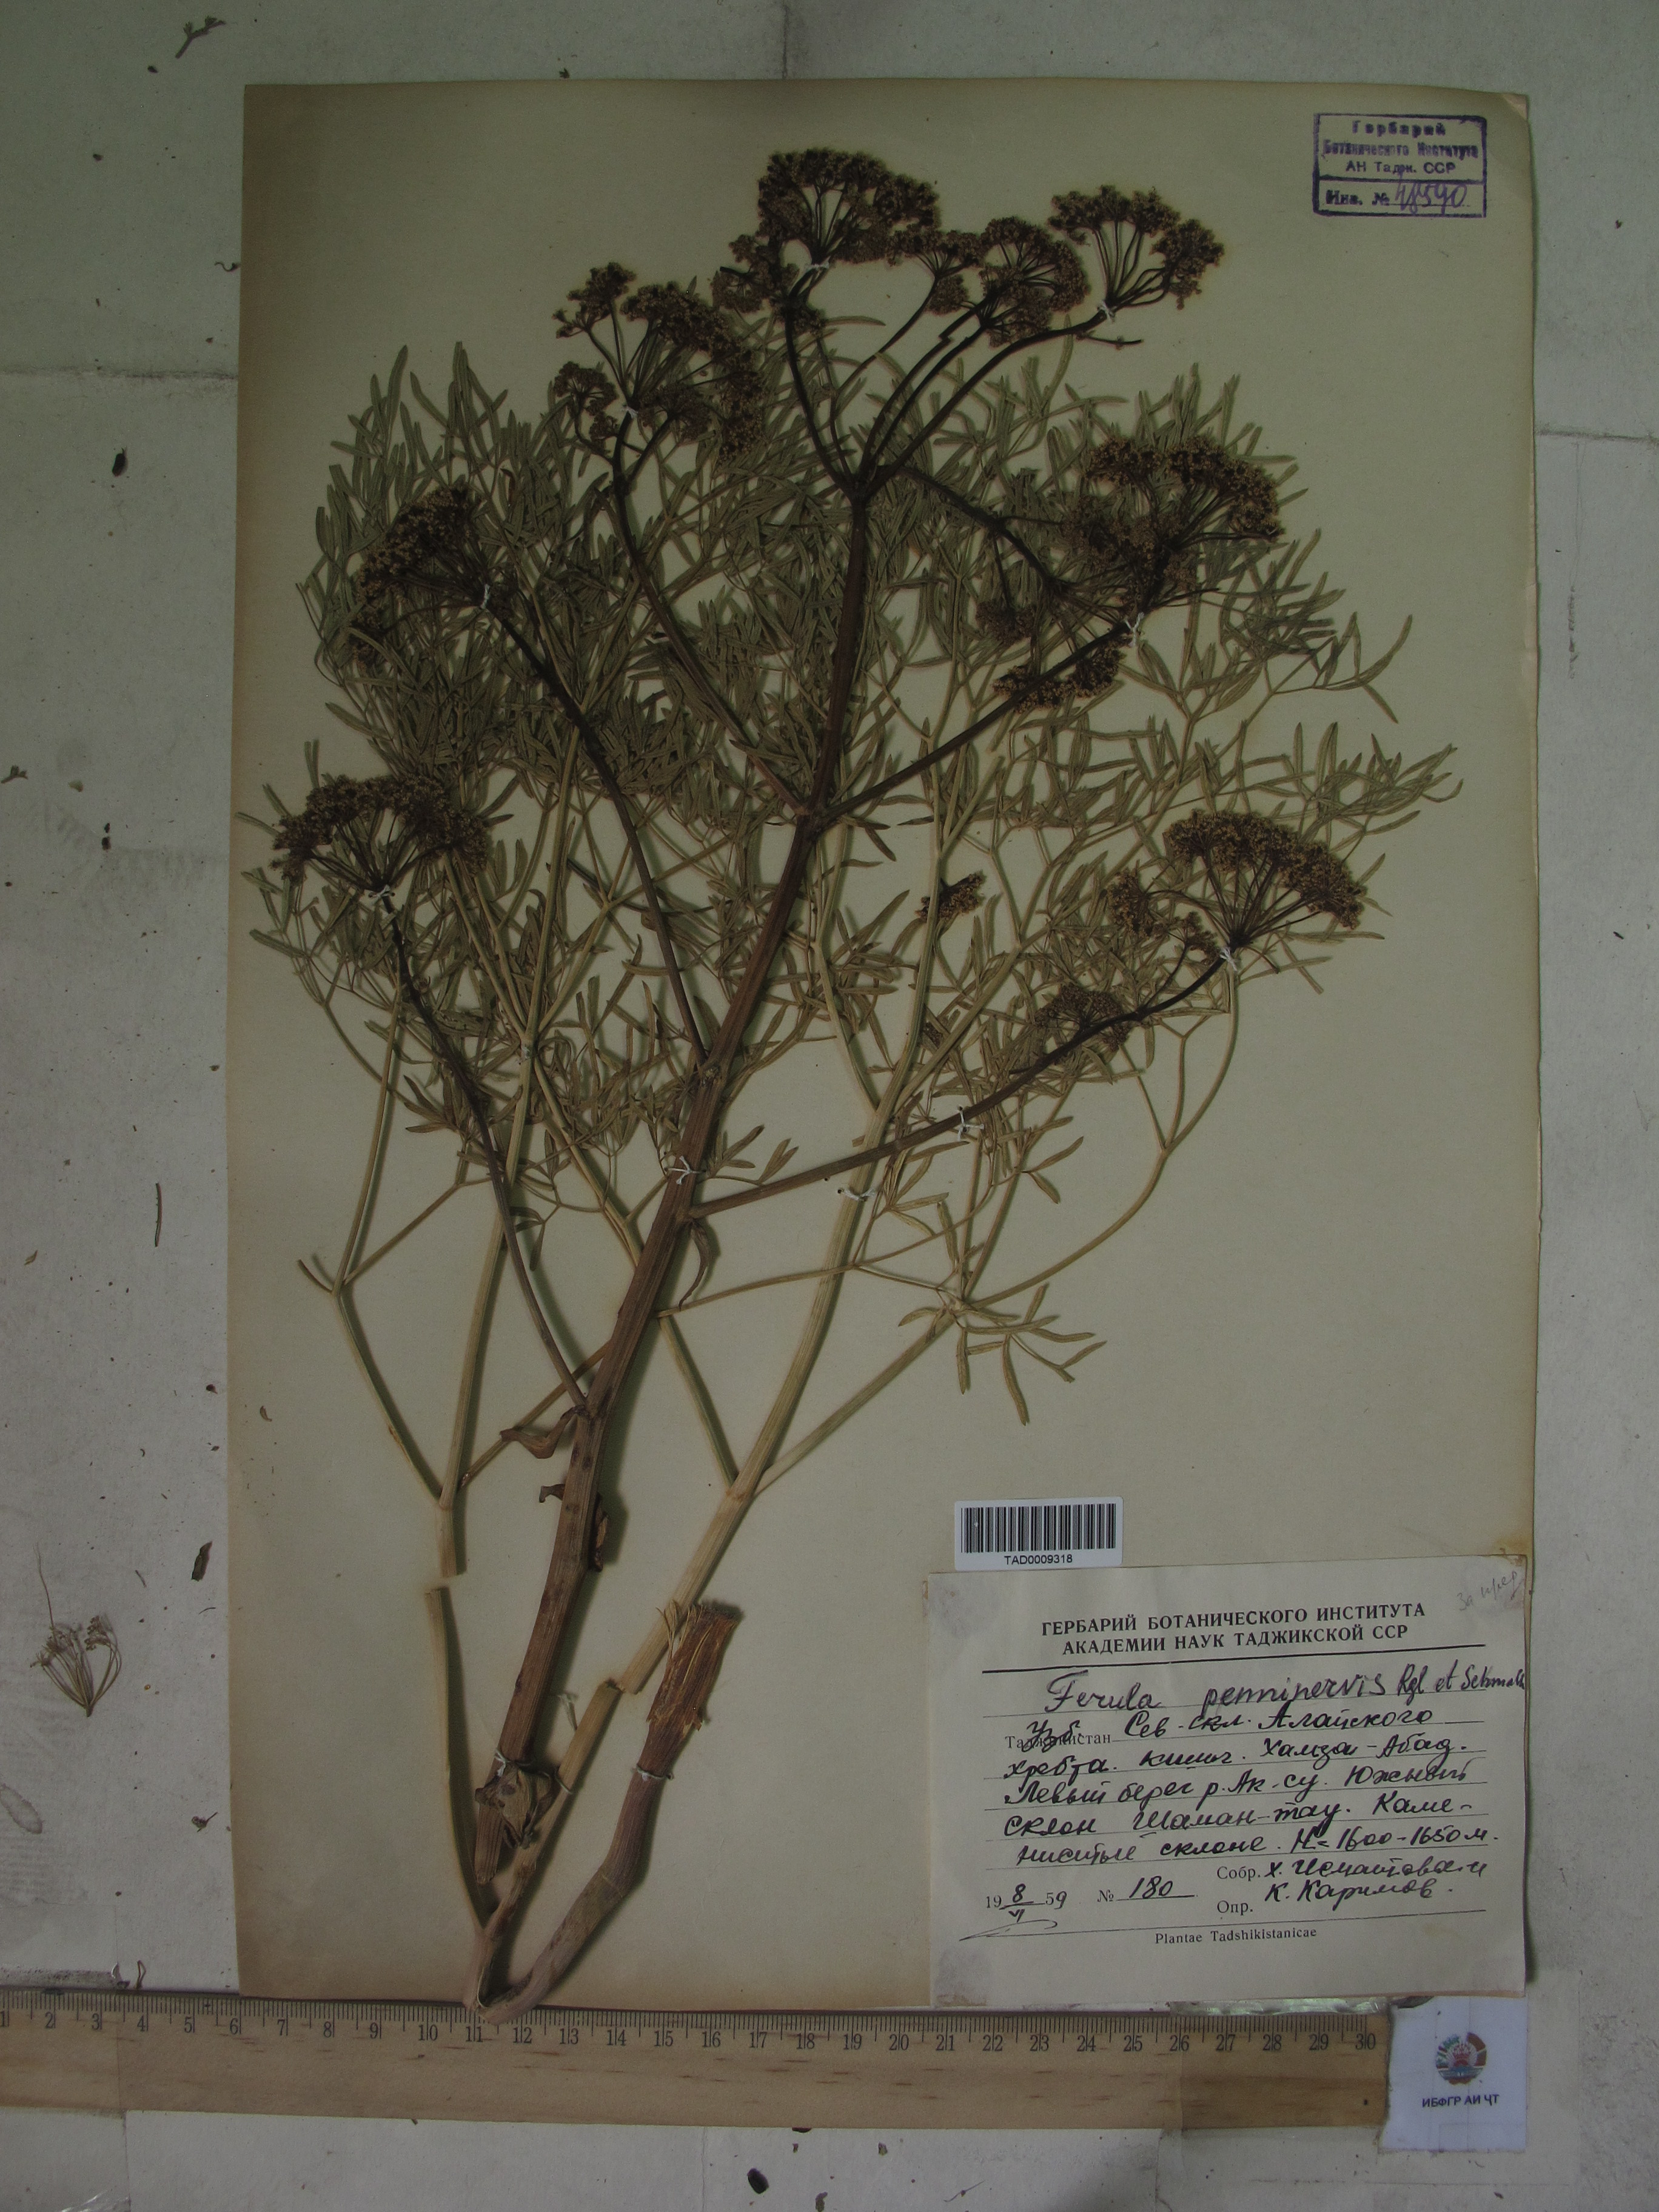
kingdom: Plantae
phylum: Tracheophyta
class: Magnoliopsida
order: Apiales
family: Apiaceae
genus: Ferula
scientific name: Ferula penninervis
